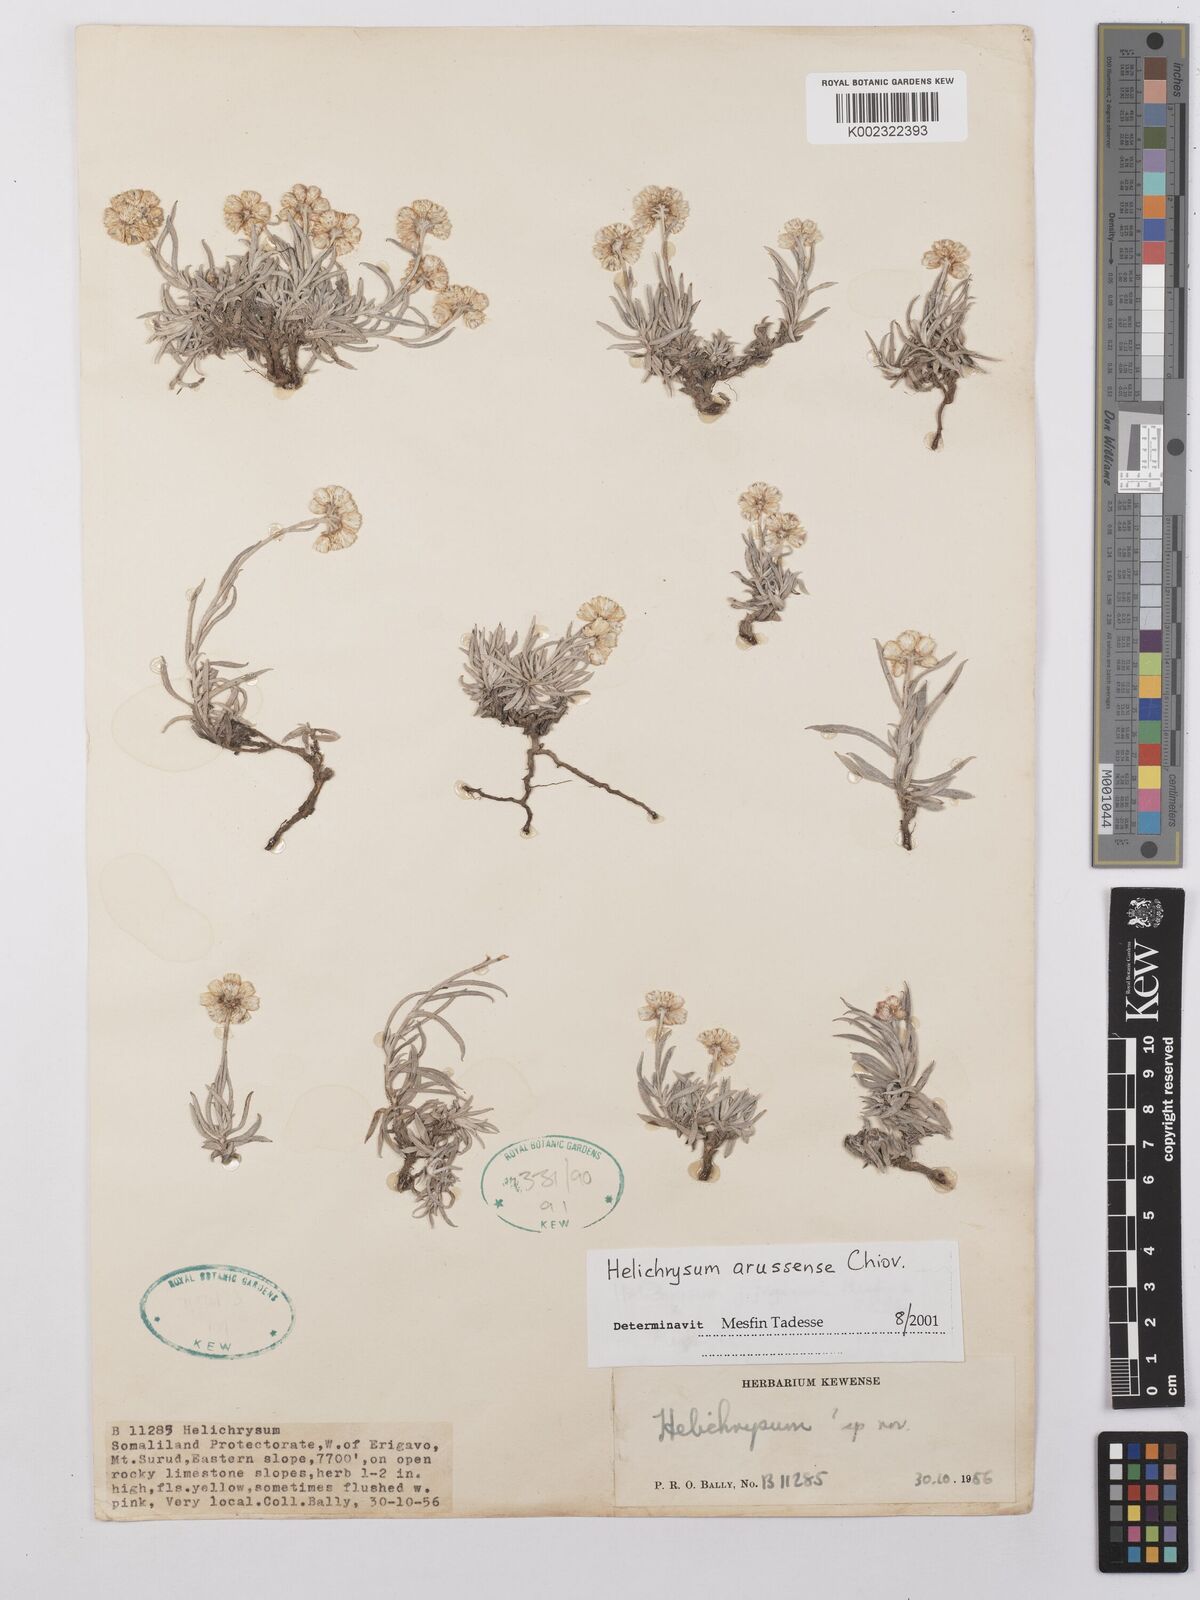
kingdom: Plantae
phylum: Tracheophyta
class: Magnoliopsida
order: Asterales
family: Asteraceae
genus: Helichrysum
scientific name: Helichrysum arussense
